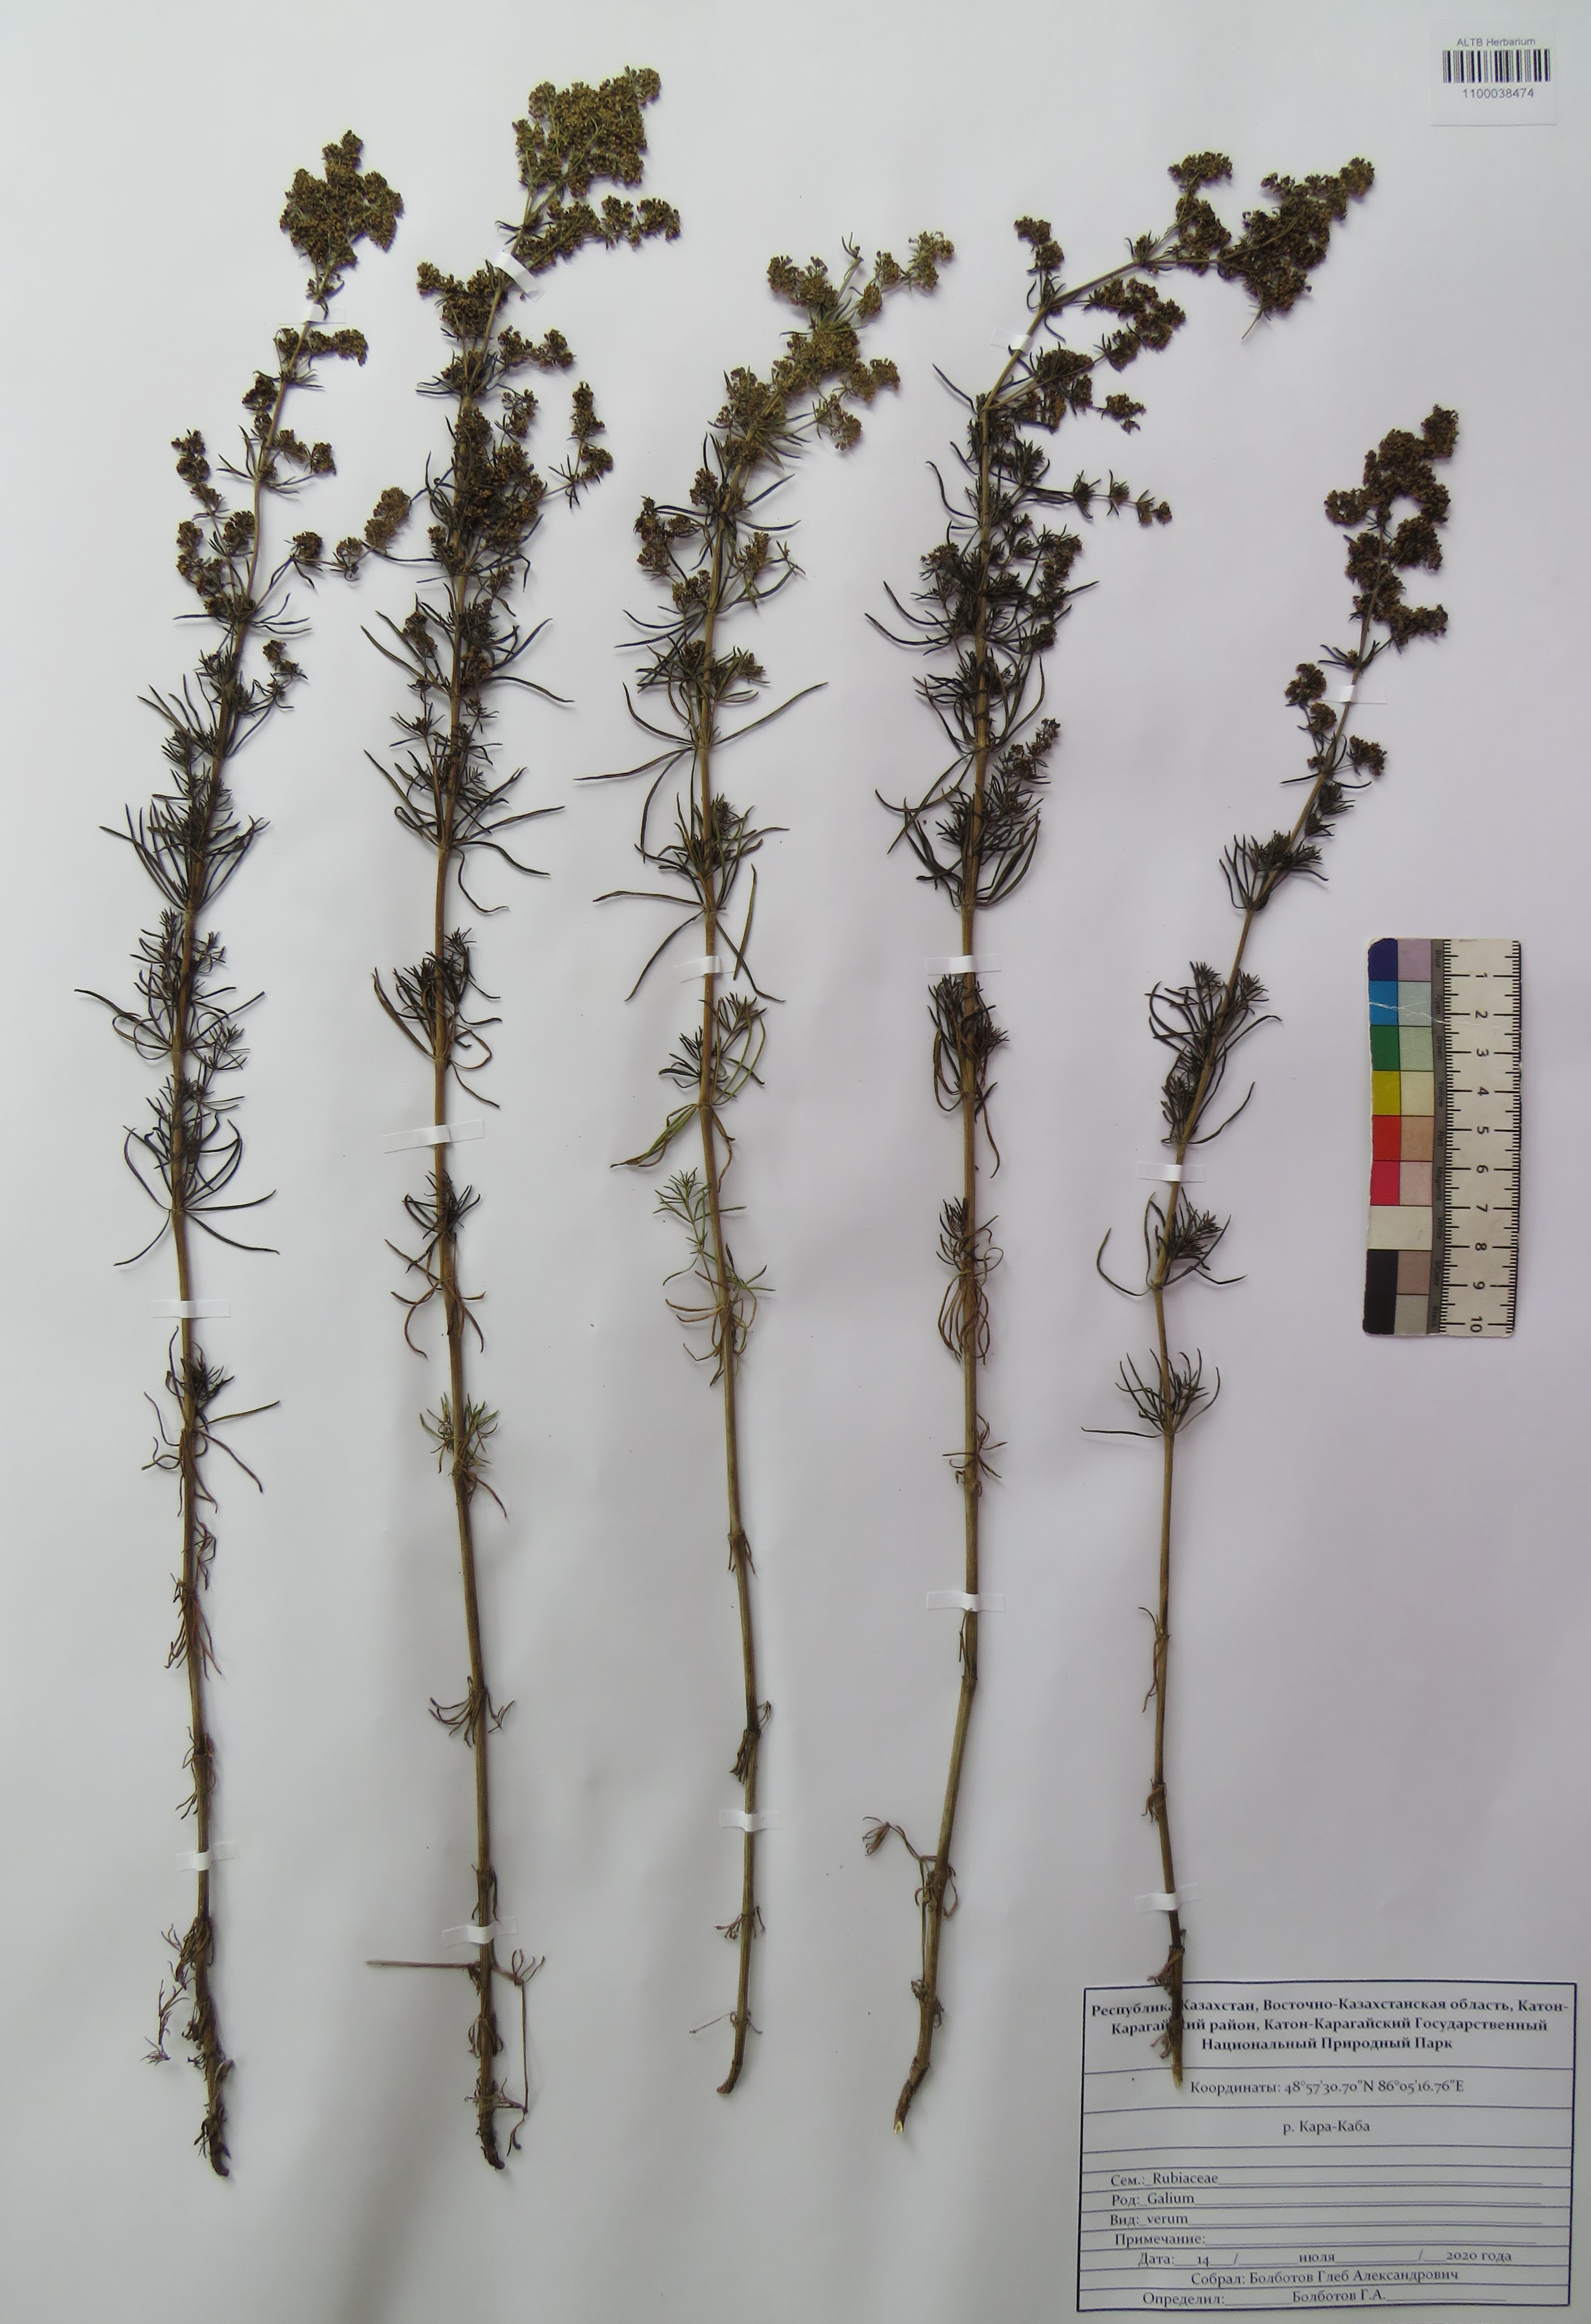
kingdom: Plantae
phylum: Tracheophyta
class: Magnoliopsida
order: Gentianales
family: Rubiaceae
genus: Galium
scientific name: Galium verum
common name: Lady's bedstraw
